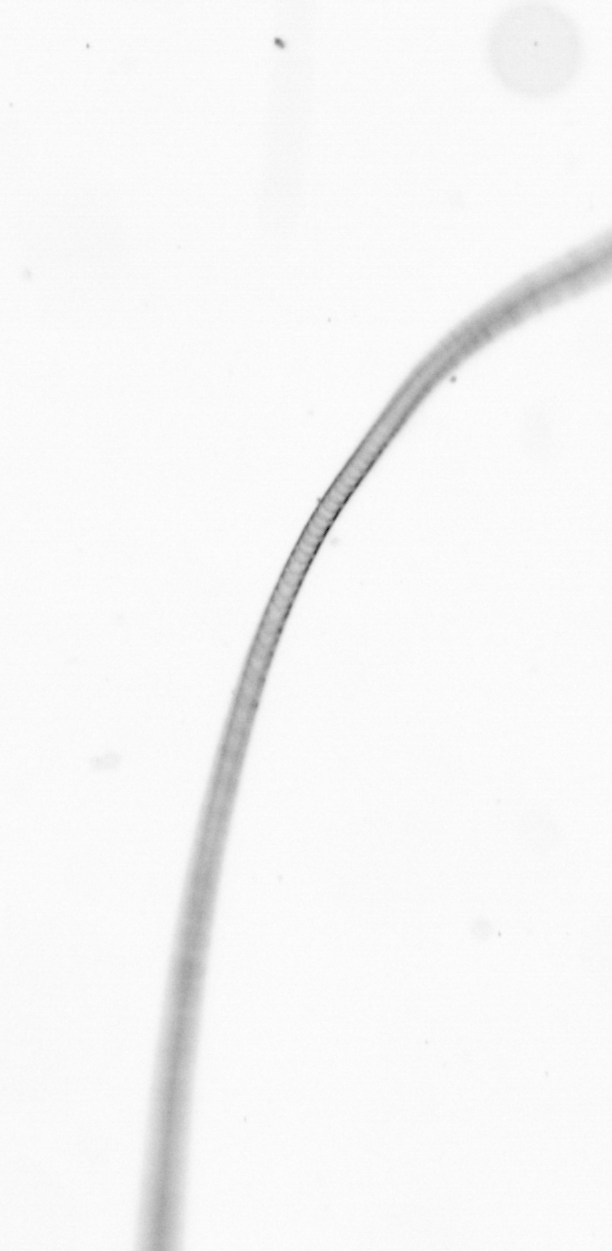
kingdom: Chromista
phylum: Ochrophyta
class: Bacillariophyceae
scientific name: Bacillariophyceae
